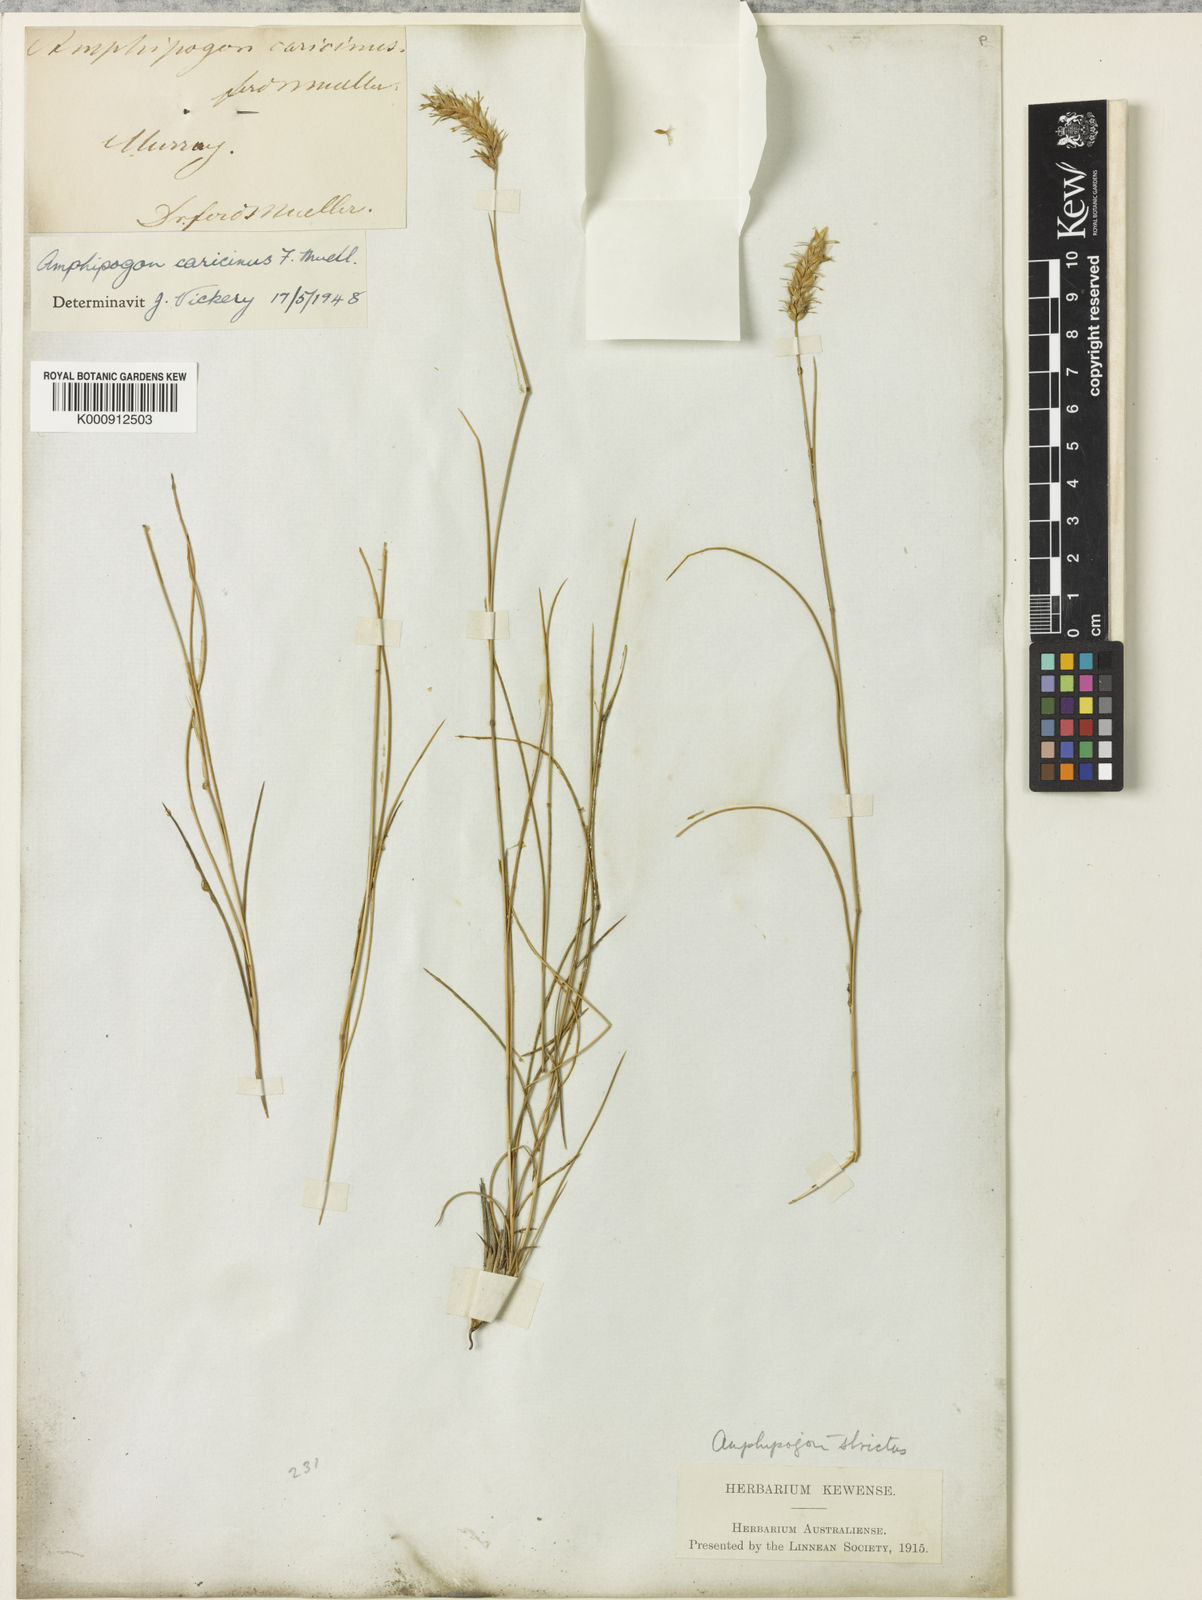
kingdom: Plantae
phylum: Tracheophyta
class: Liliopsida
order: Poales
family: Poaceae
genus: Amphipogon
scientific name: Amphipogon caricinus
